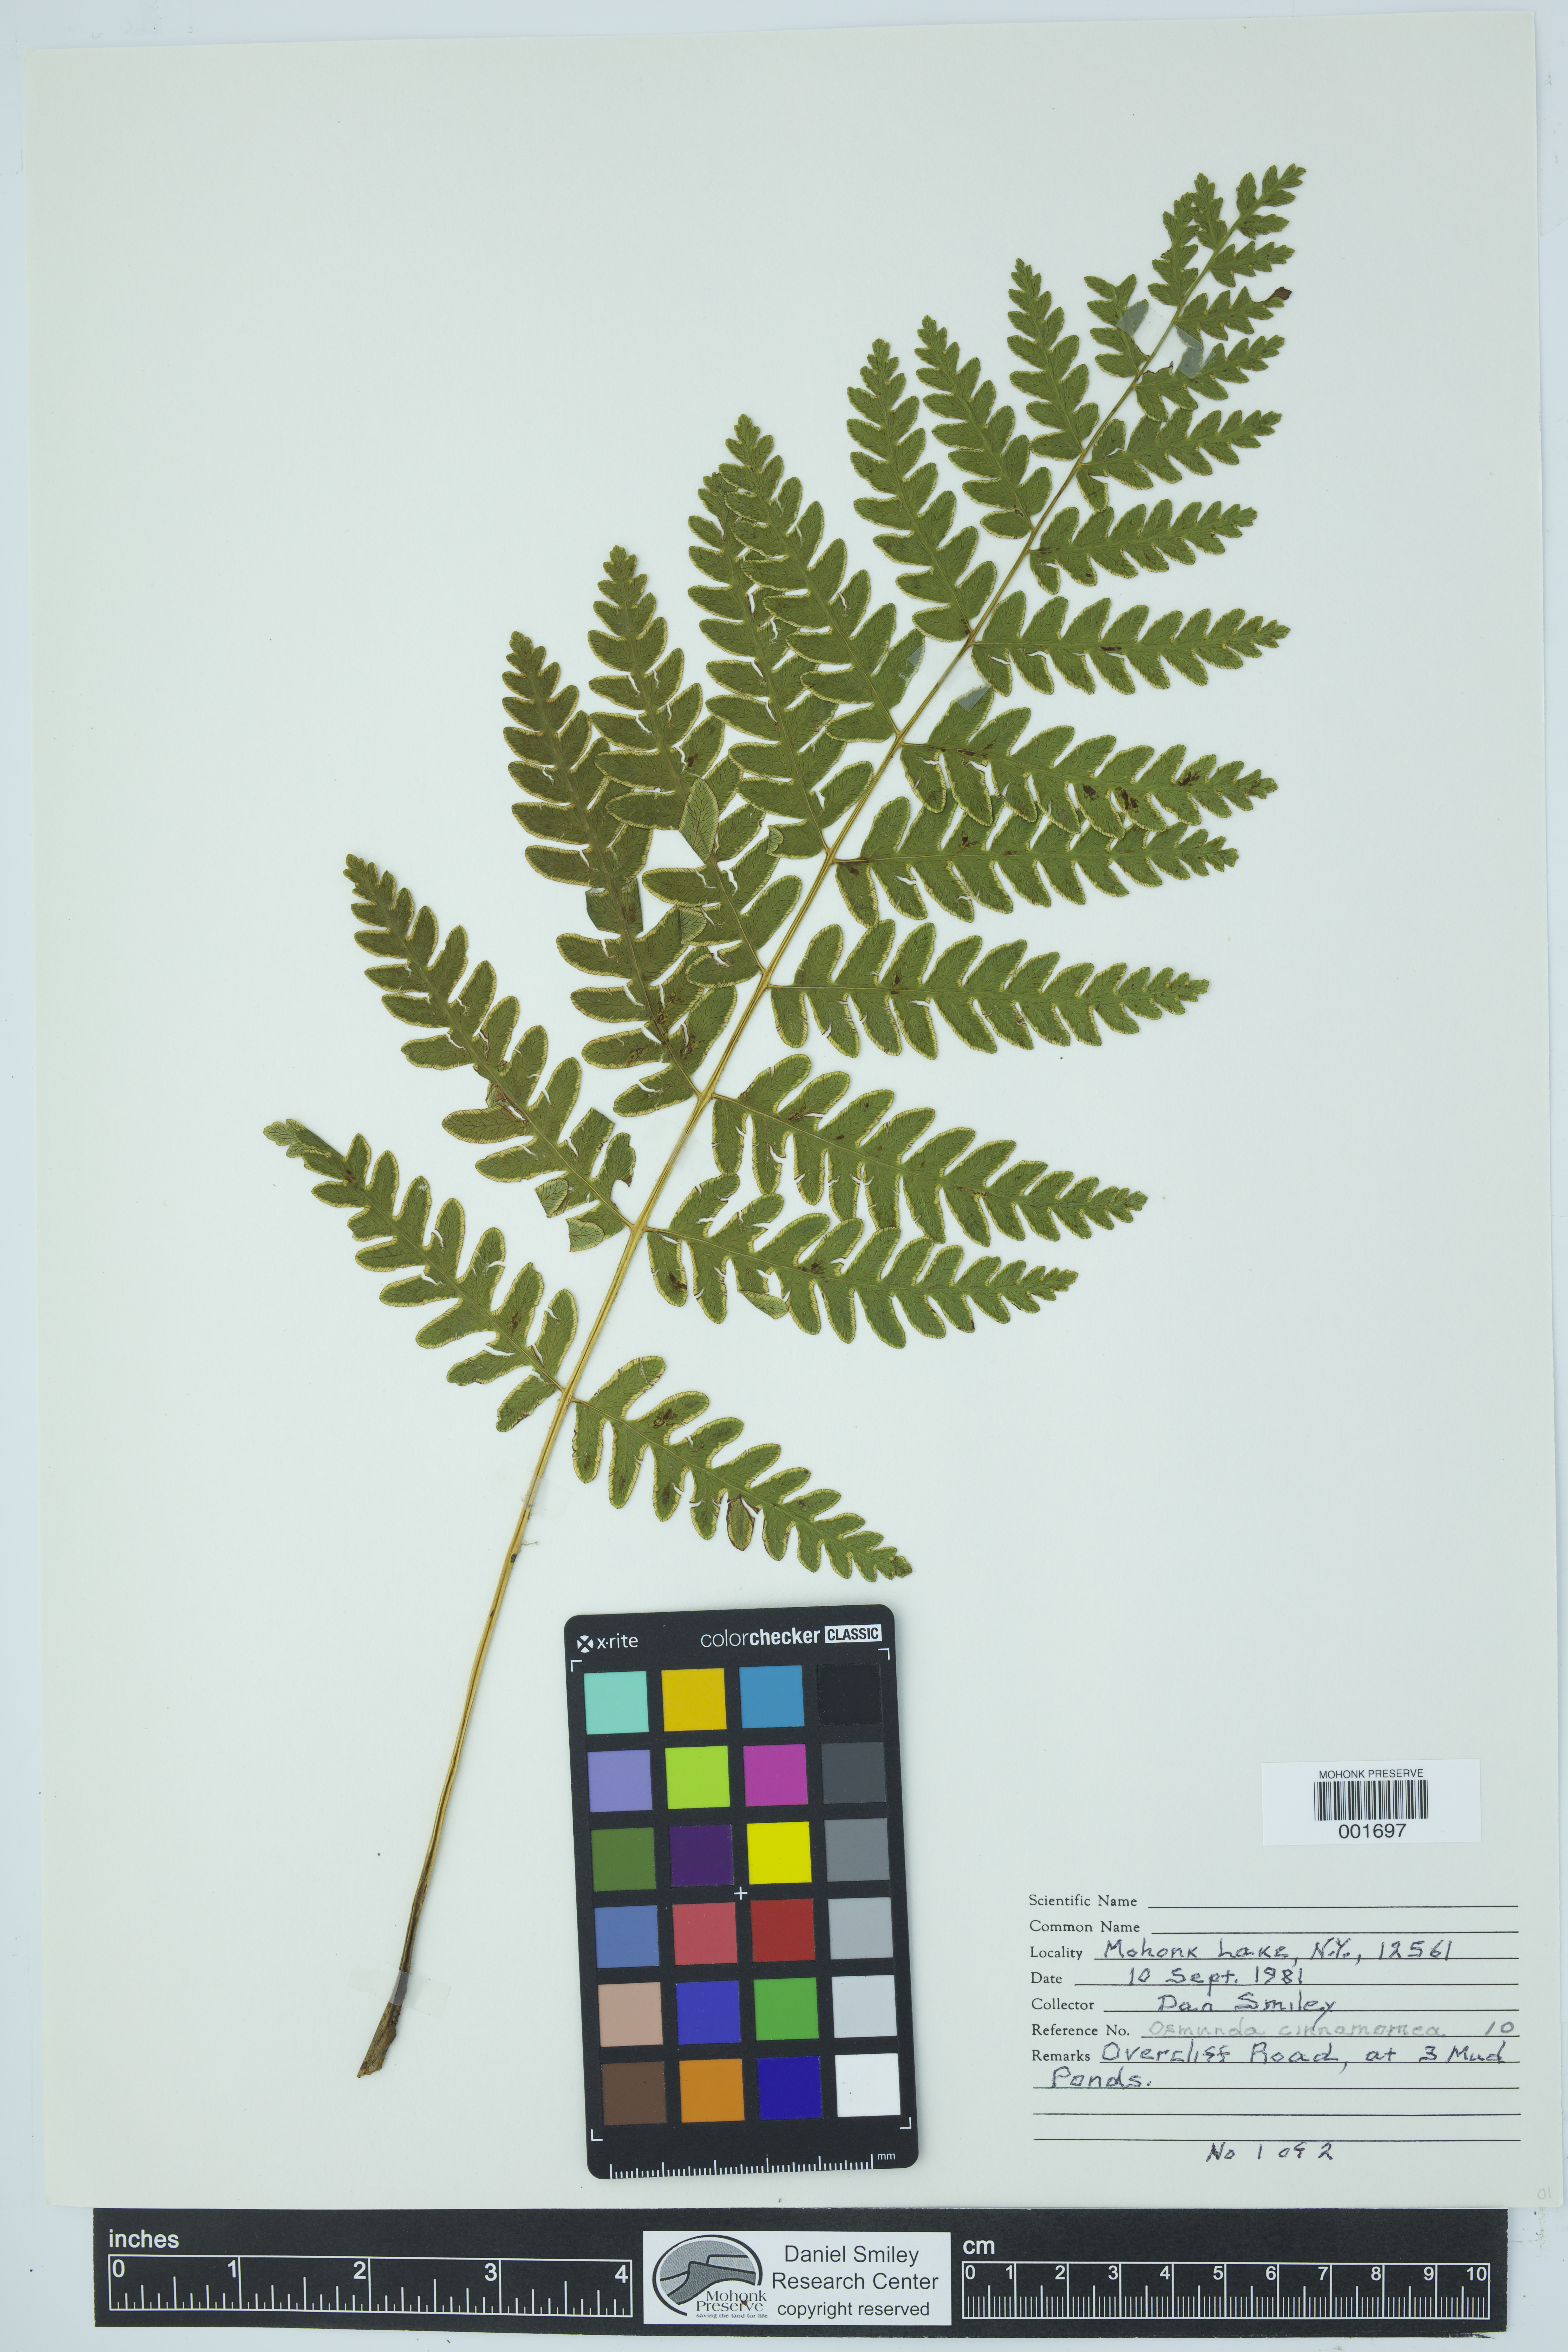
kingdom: Plantae
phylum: Tracheophyta
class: Polypodiopsida
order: Osmundales
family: Osmundaceae
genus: Osmundastrum
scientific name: Osmundastrum cinnamomeum
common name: Cinnamon fern
